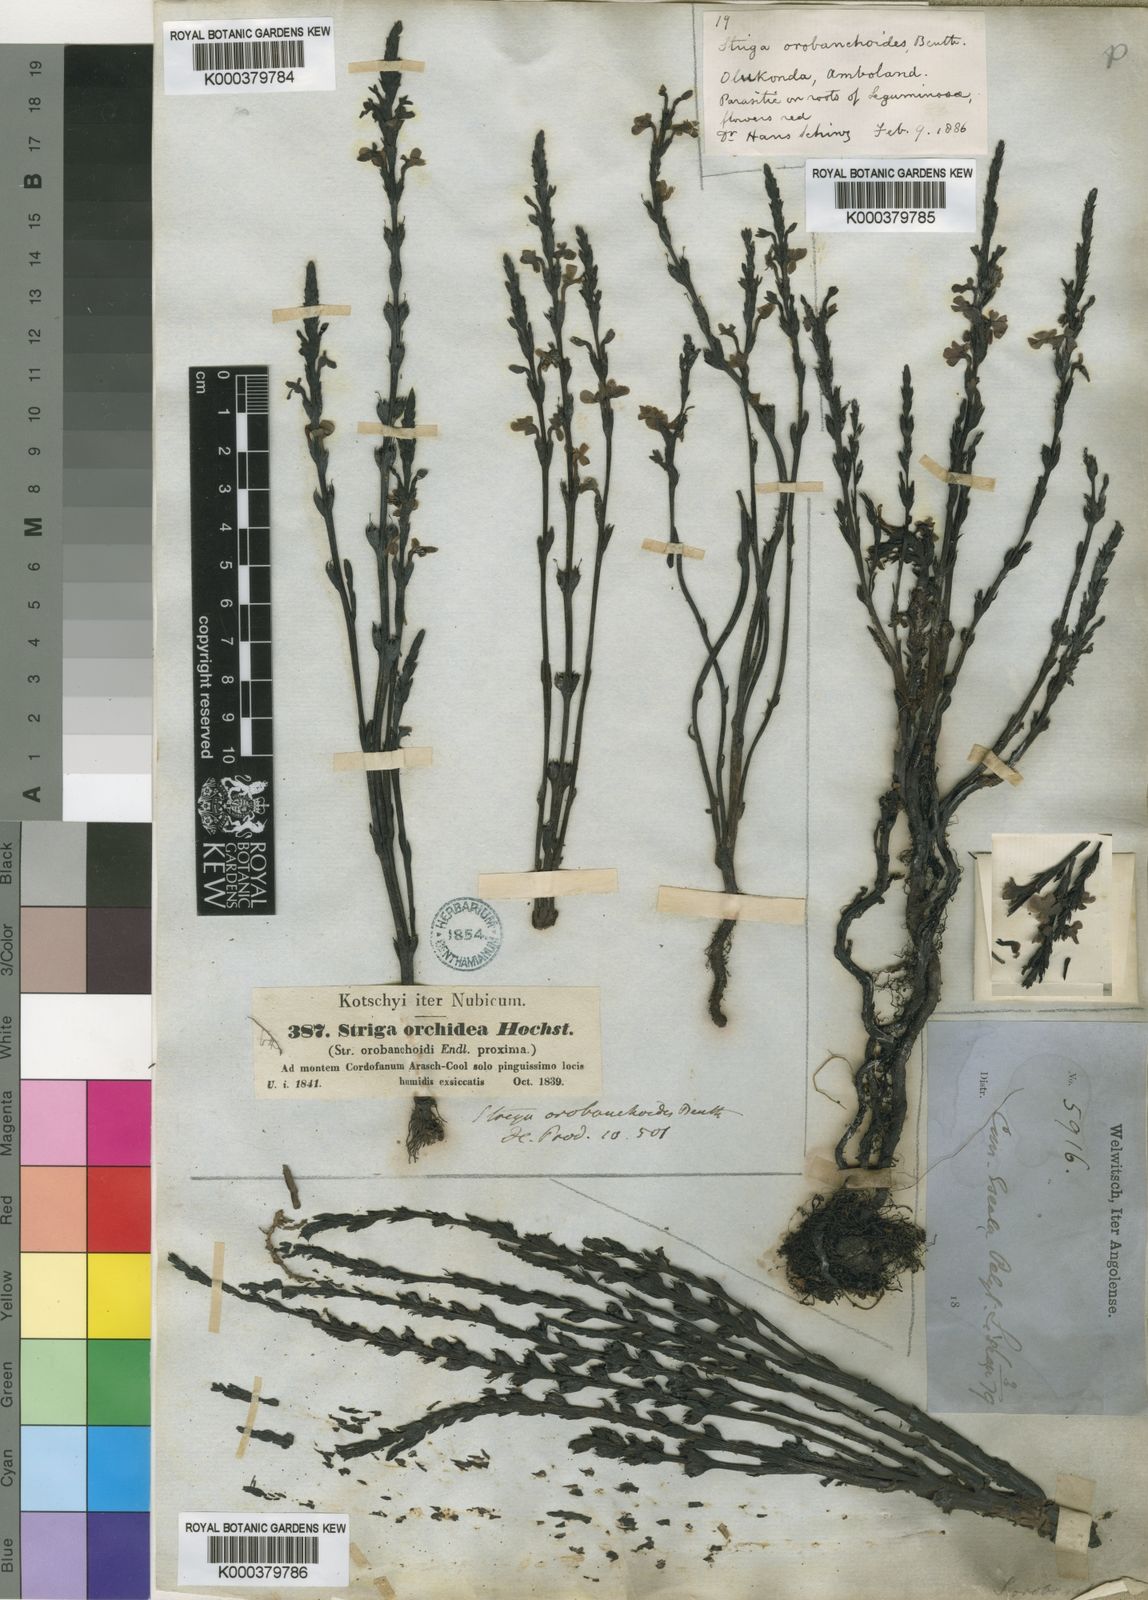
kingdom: Plantae
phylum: Tracheophyta
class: Magnoliopsida
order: Lamiales
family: Orobanchaceae
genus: Striga
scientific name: Striga gesnerioides
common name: Cowpea witchweed
